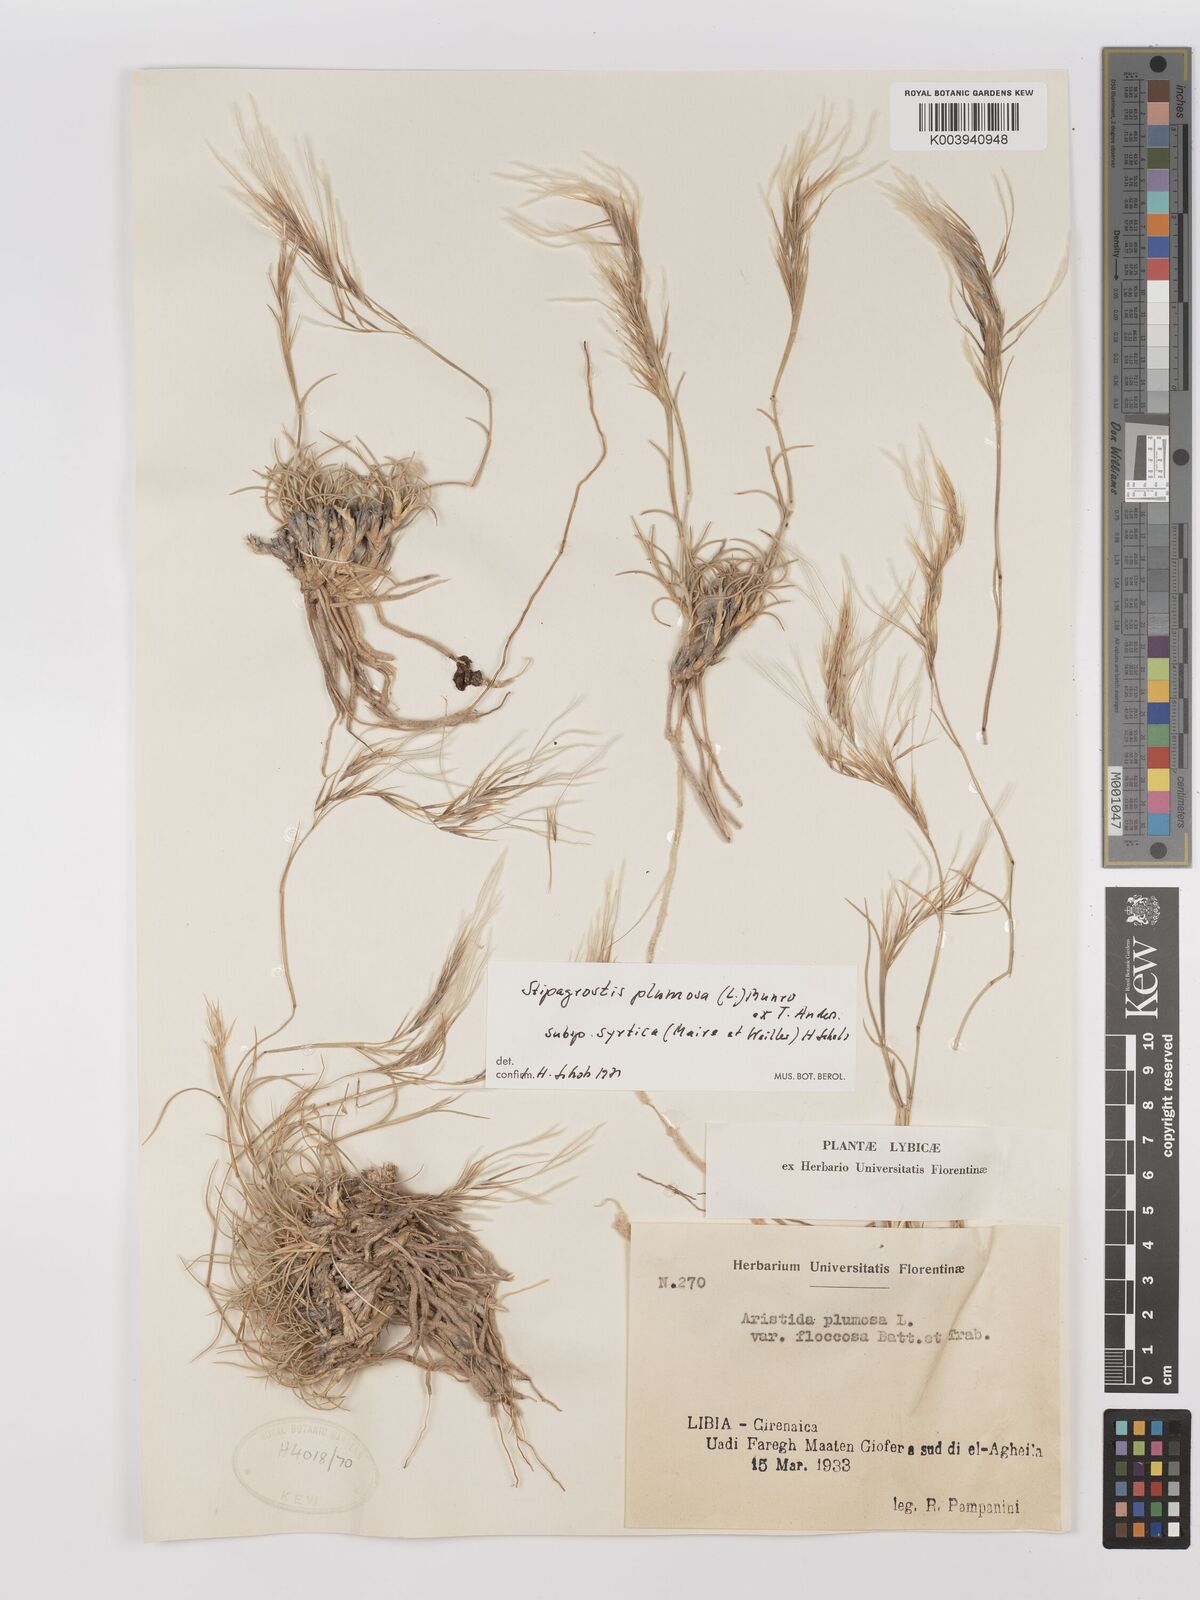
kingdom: Plantae
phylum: Tracheophyta
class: Liliopsida
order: Poales
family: Poaceae
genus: Stipagrostis
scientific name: Stipagrostis plumosa
